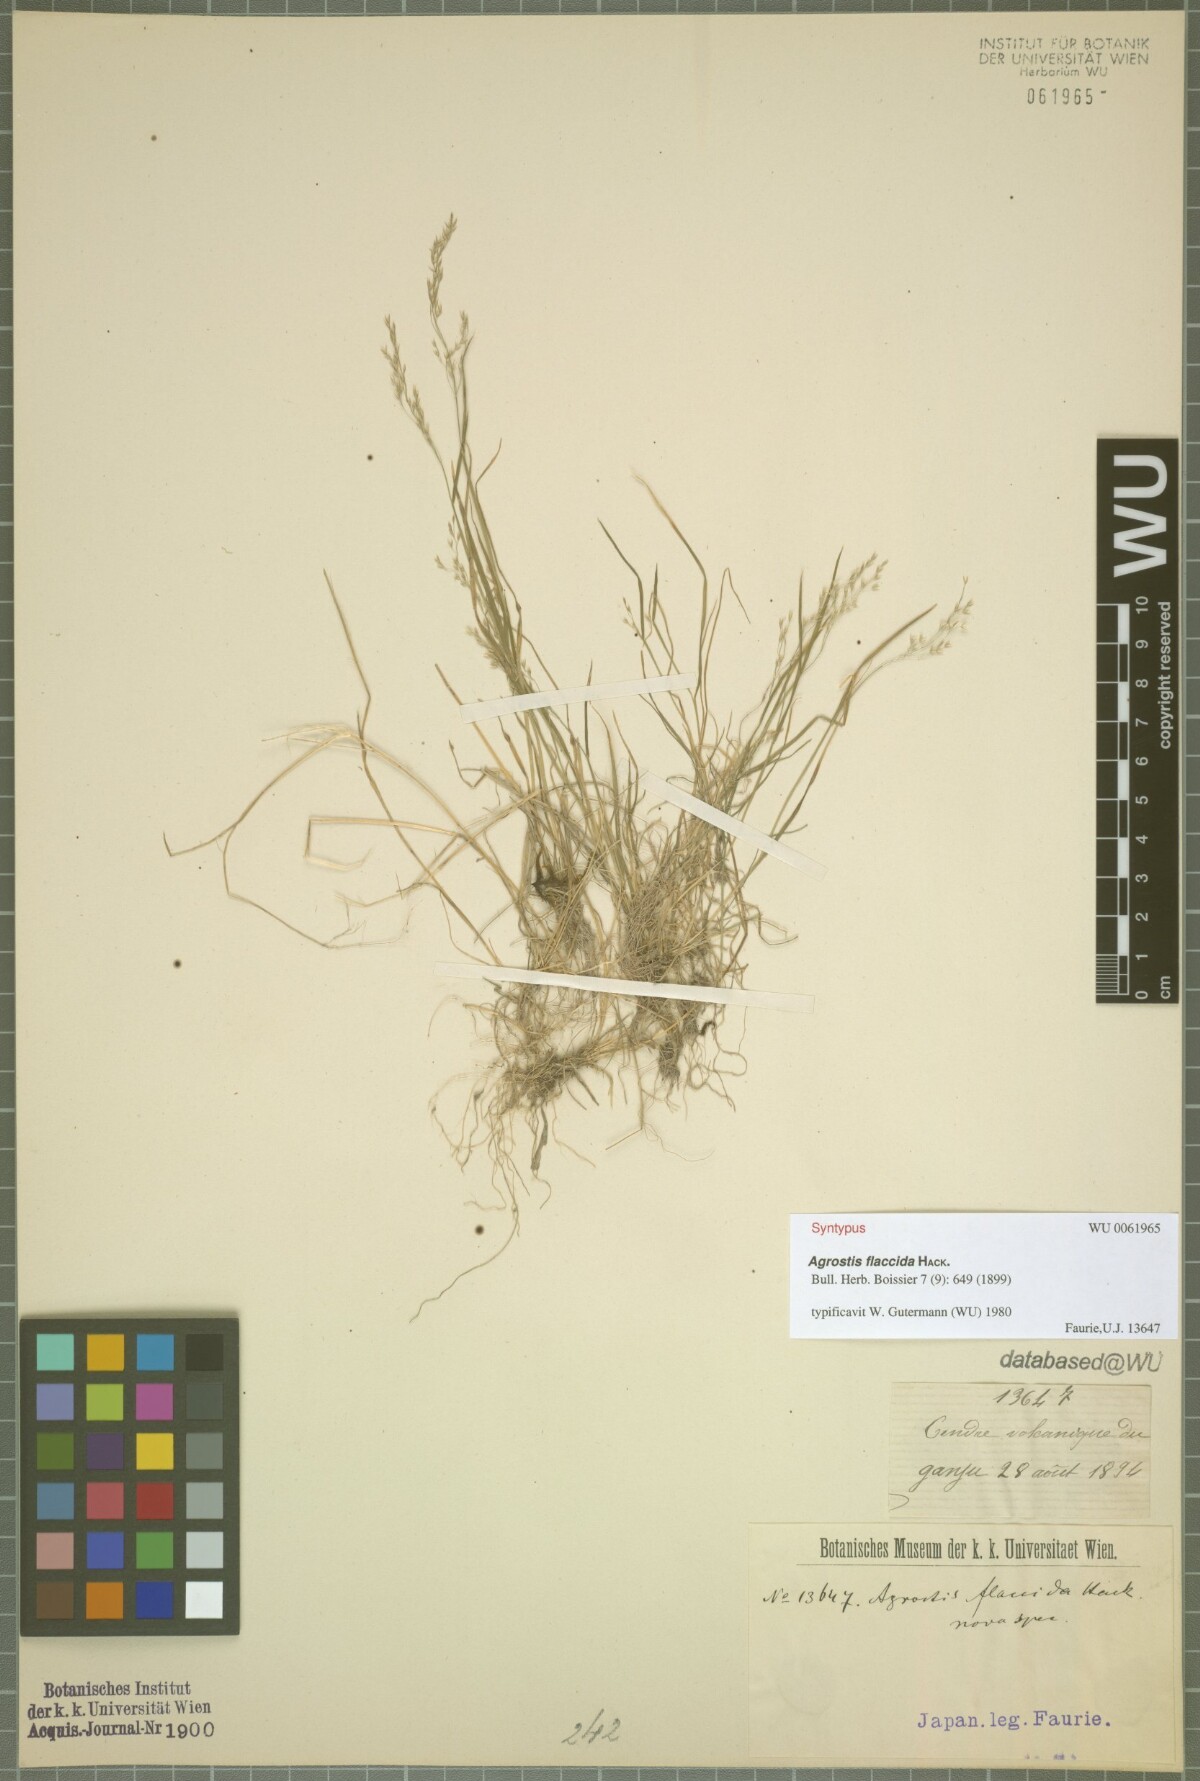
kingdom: Plantae
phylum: Tracheophyta
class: Liliopsida
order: Poales
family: Poaceae
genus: Agrostis
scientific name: Agrostis flaccida
